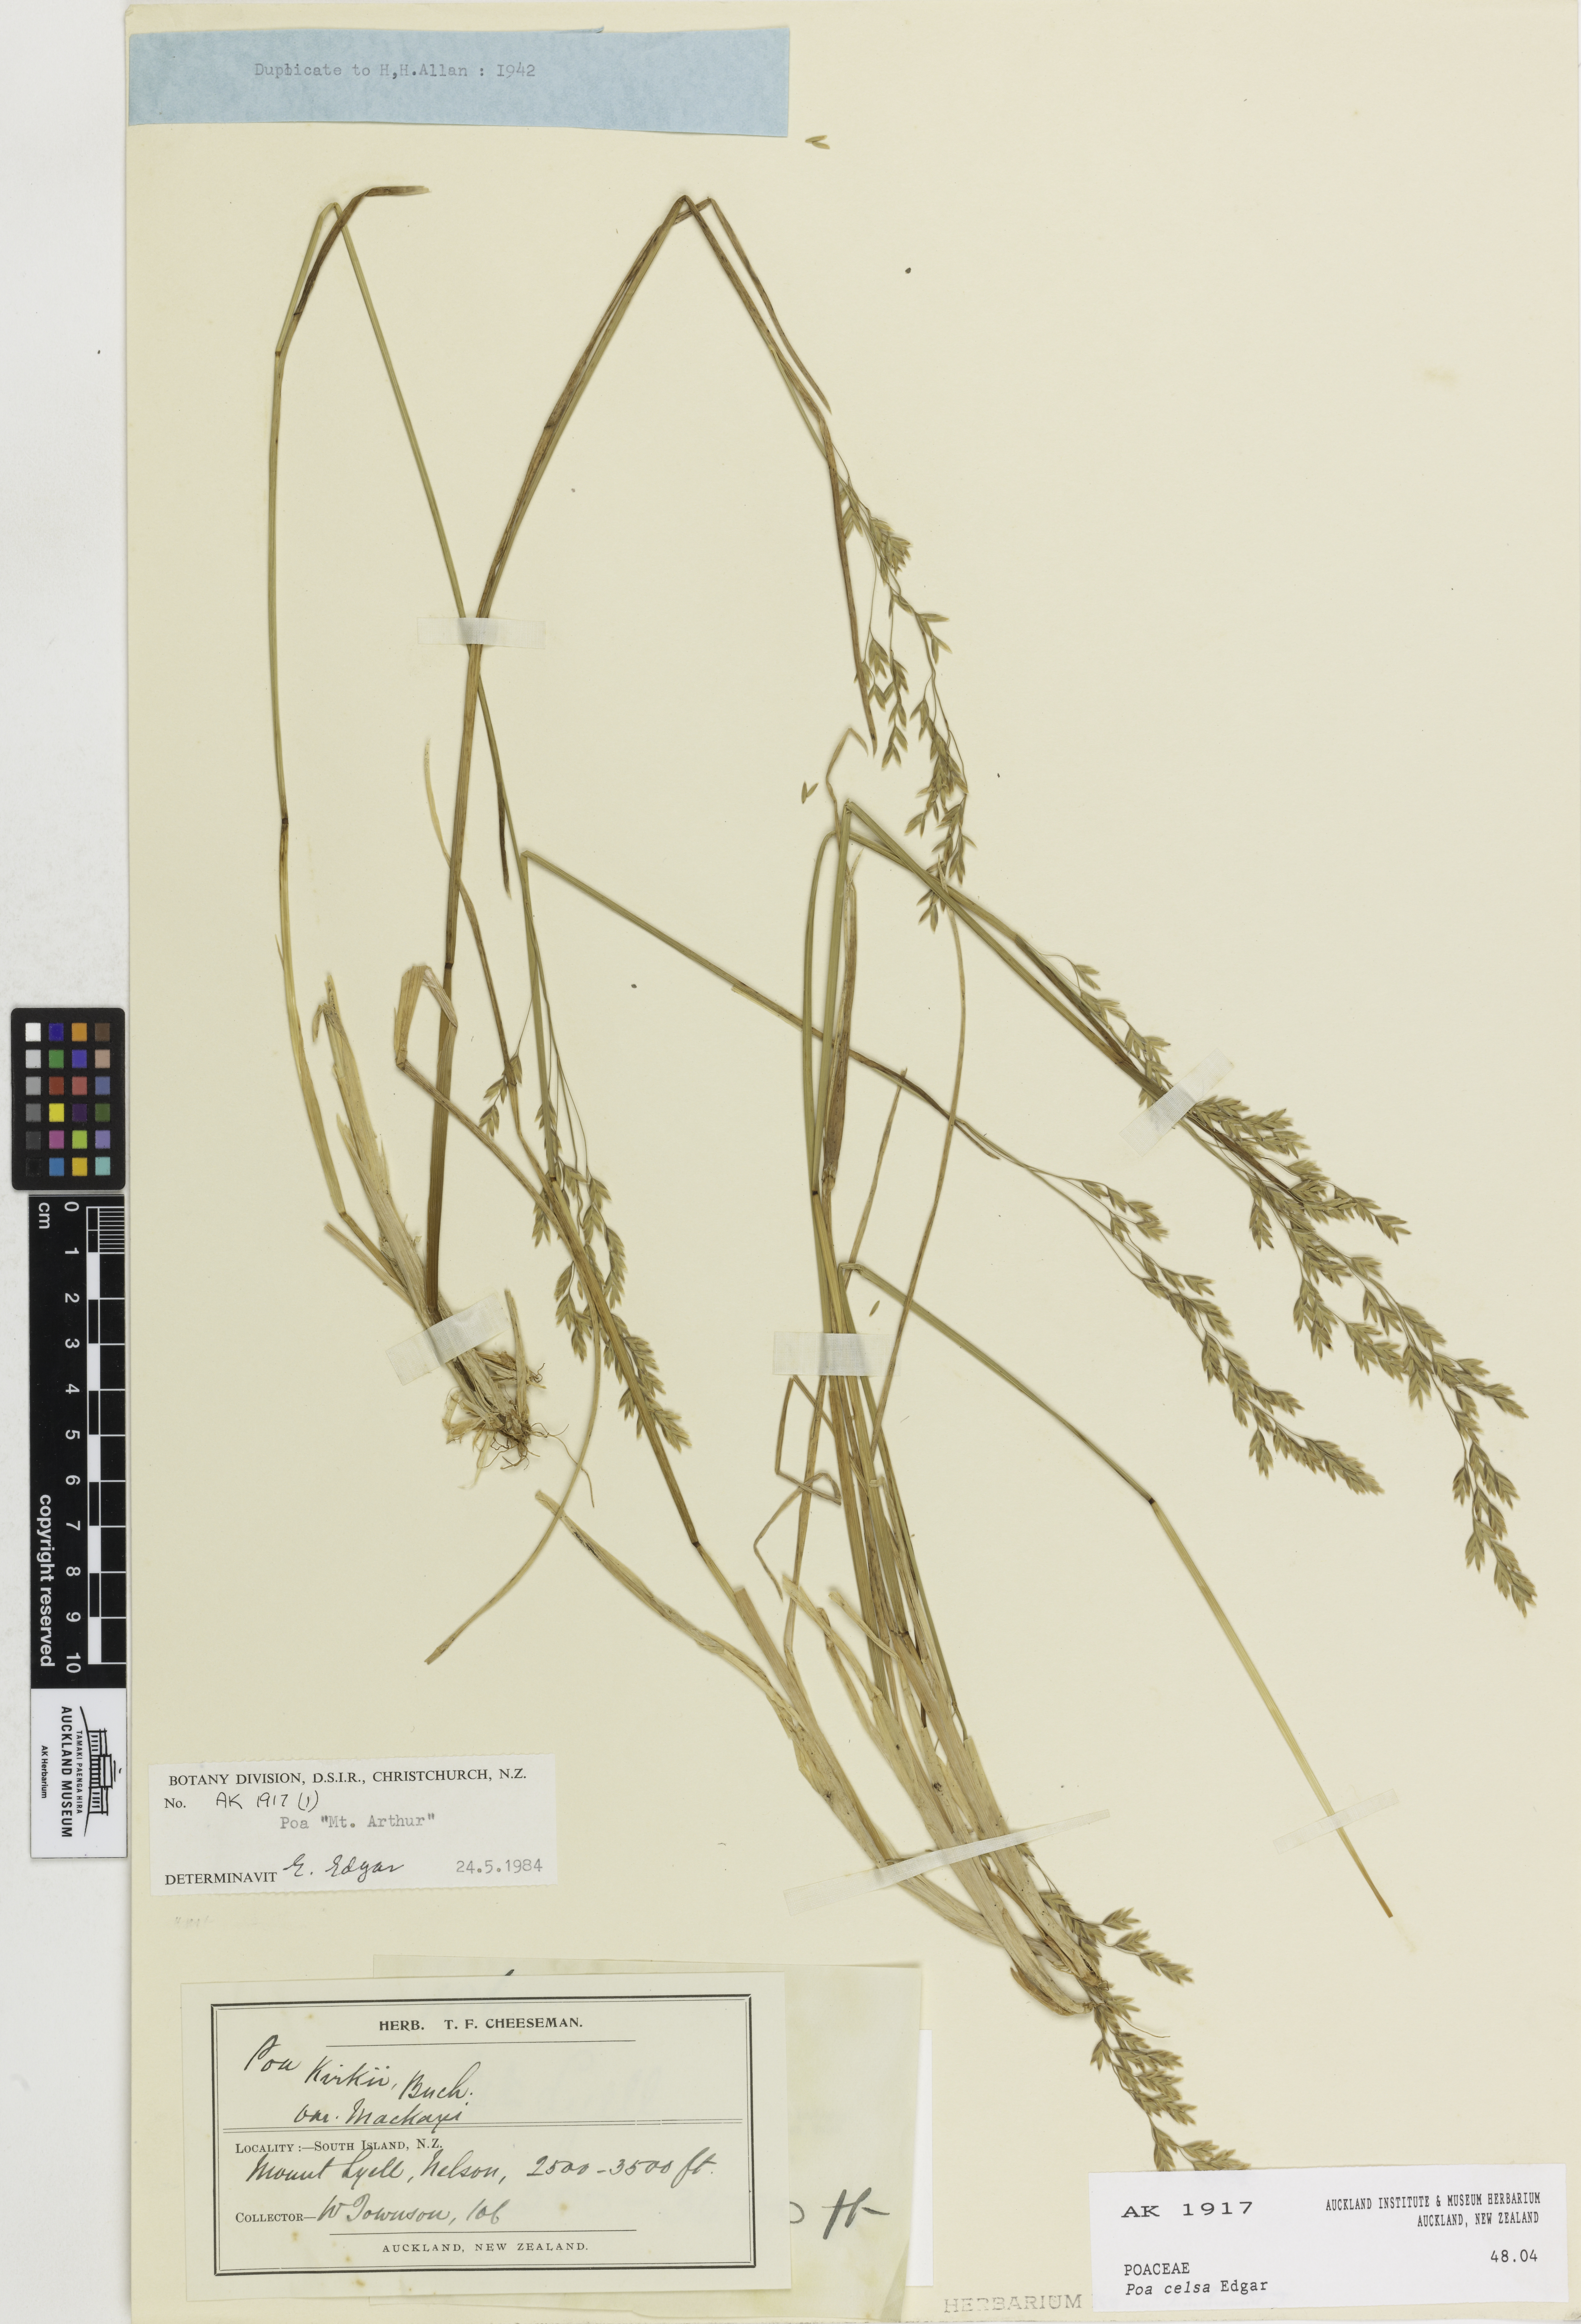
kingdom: Plantae
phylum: Tracheophyta
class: Liliopsida
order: Poales
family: Poaceae
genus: Poa
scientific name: Poa celsa
